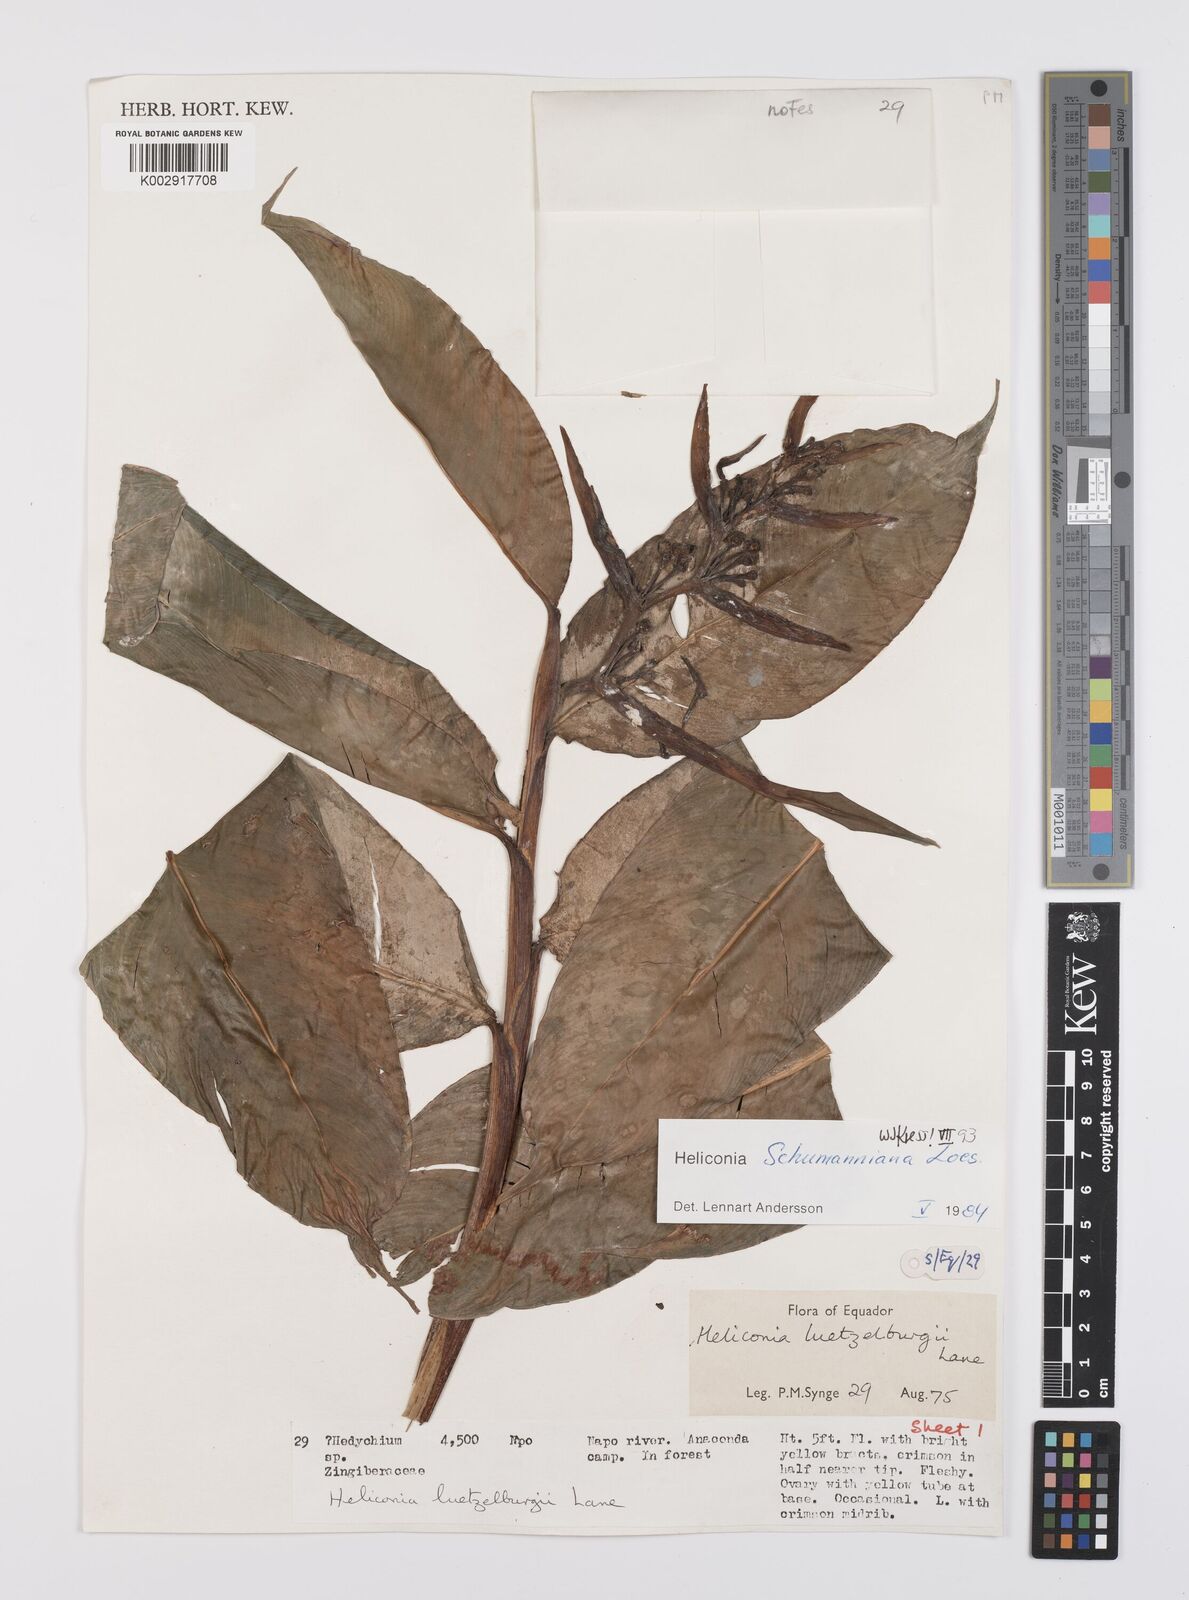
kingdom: Plantae
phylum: Tracheophyta
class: Liliopsida
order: Zingiberales
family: Heliconiaceae
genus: Heliconia
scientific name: Heliconia schumanniana
